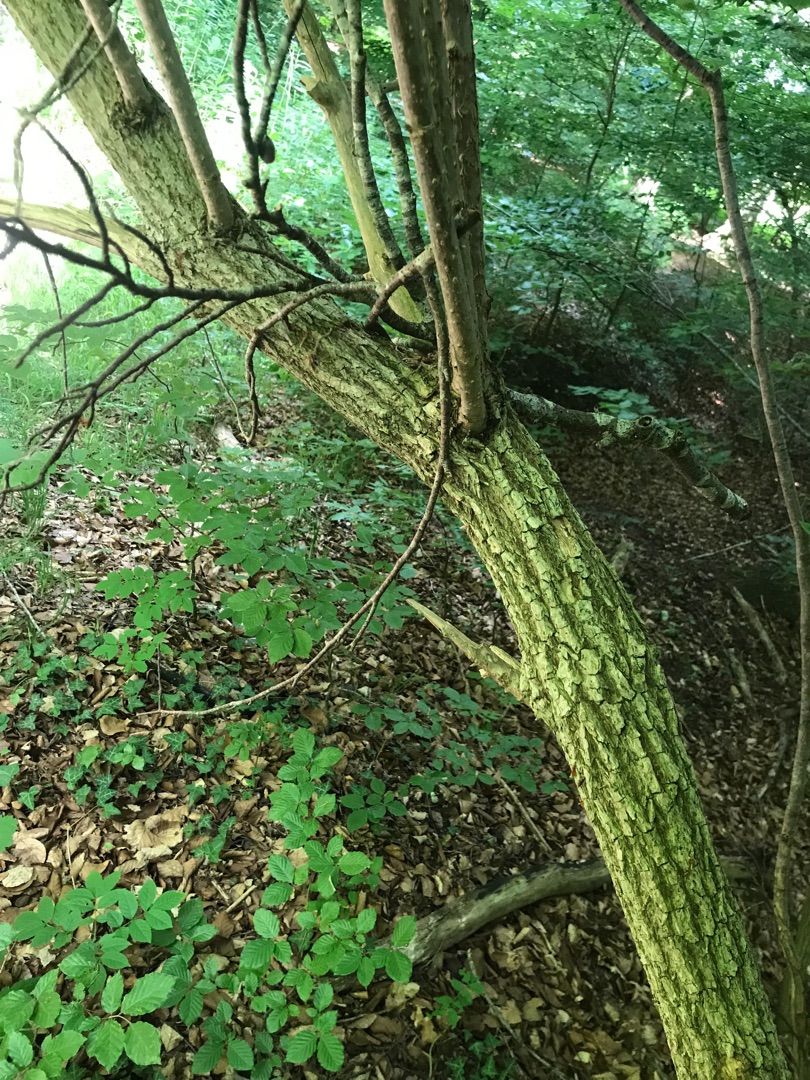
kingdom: Plantae
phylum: Tracheophyta
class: Magnoliopsida
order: Dipsacales
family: Viburnaceae
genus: Sambucus
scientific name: Sambucus nigra
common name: Almindelig hyld
